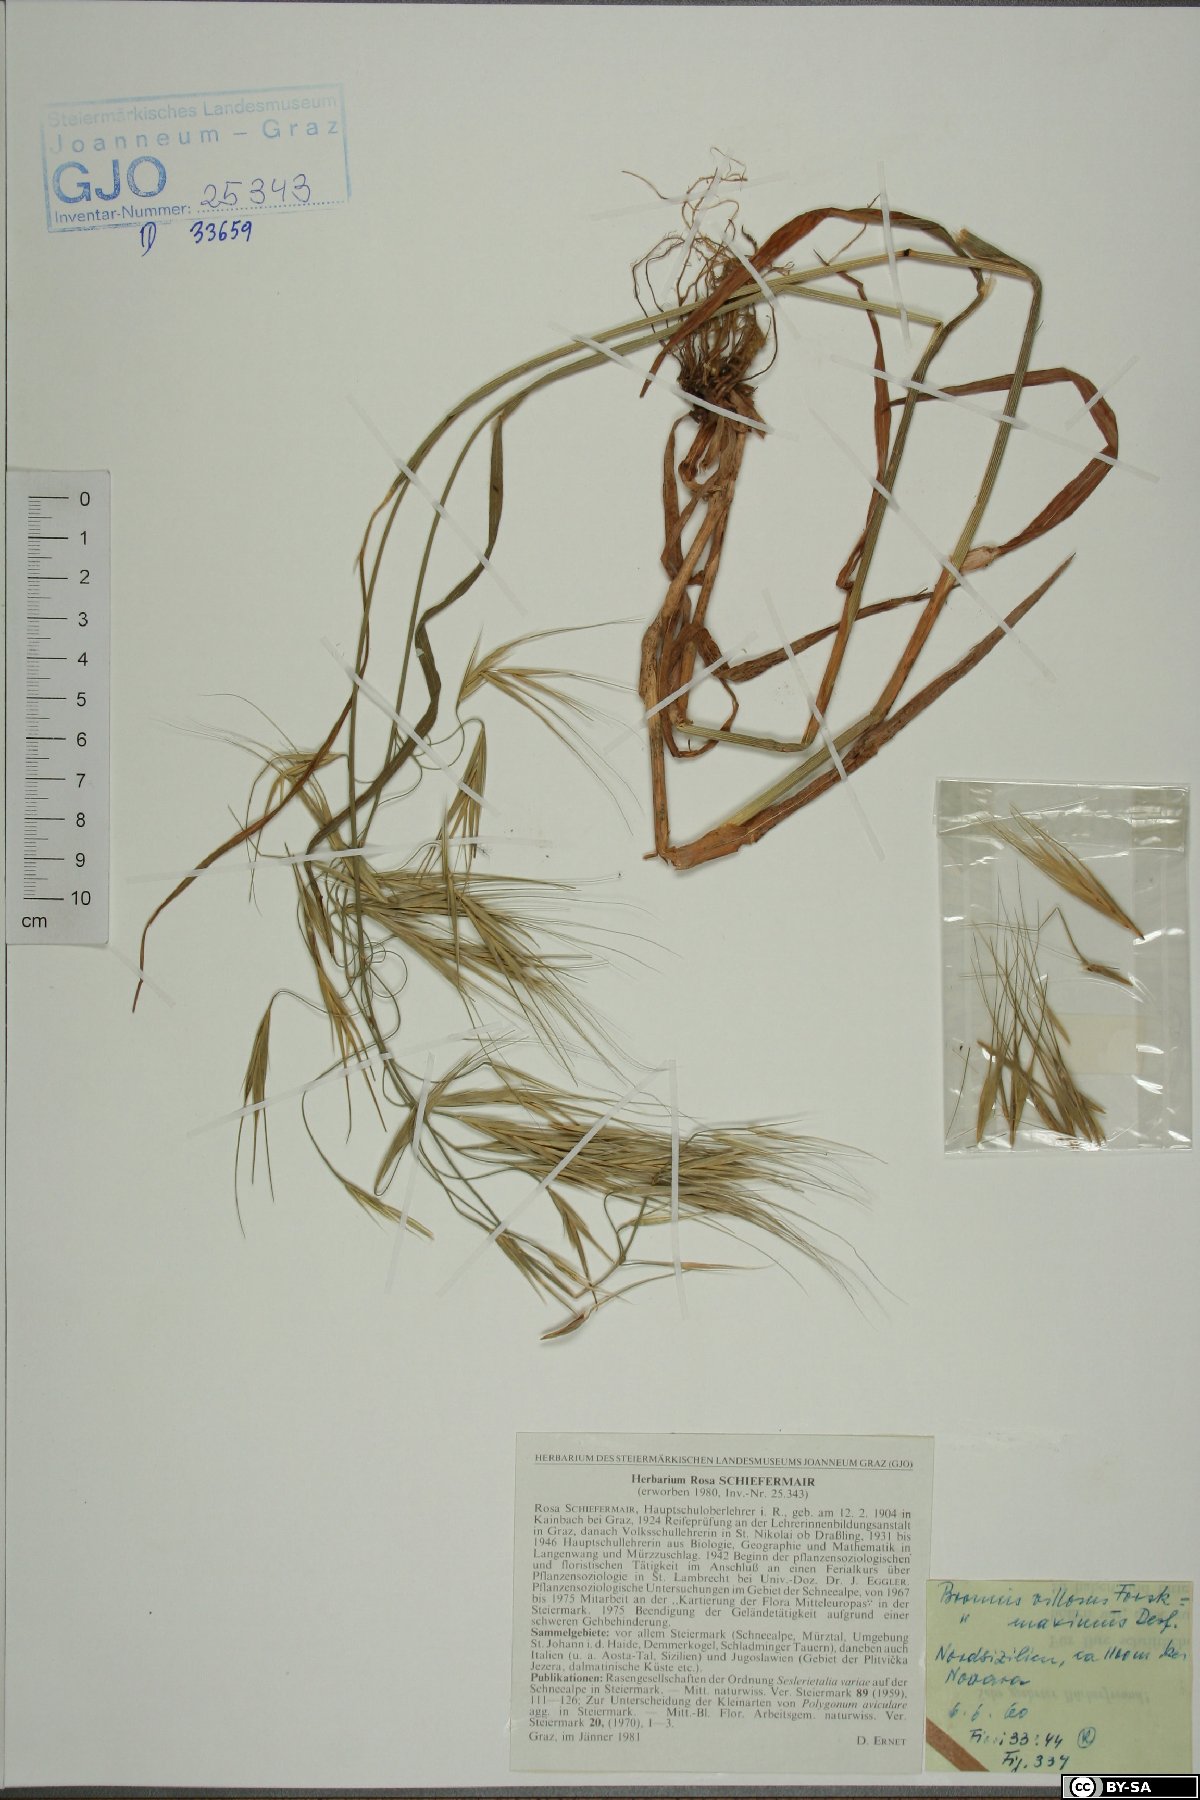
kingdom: Plantae
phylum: Tracheophyta
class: Liliopsida
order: Poales
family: Poaceae
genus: Bromus
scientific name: Bromus squarrosus
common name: Corn brome
